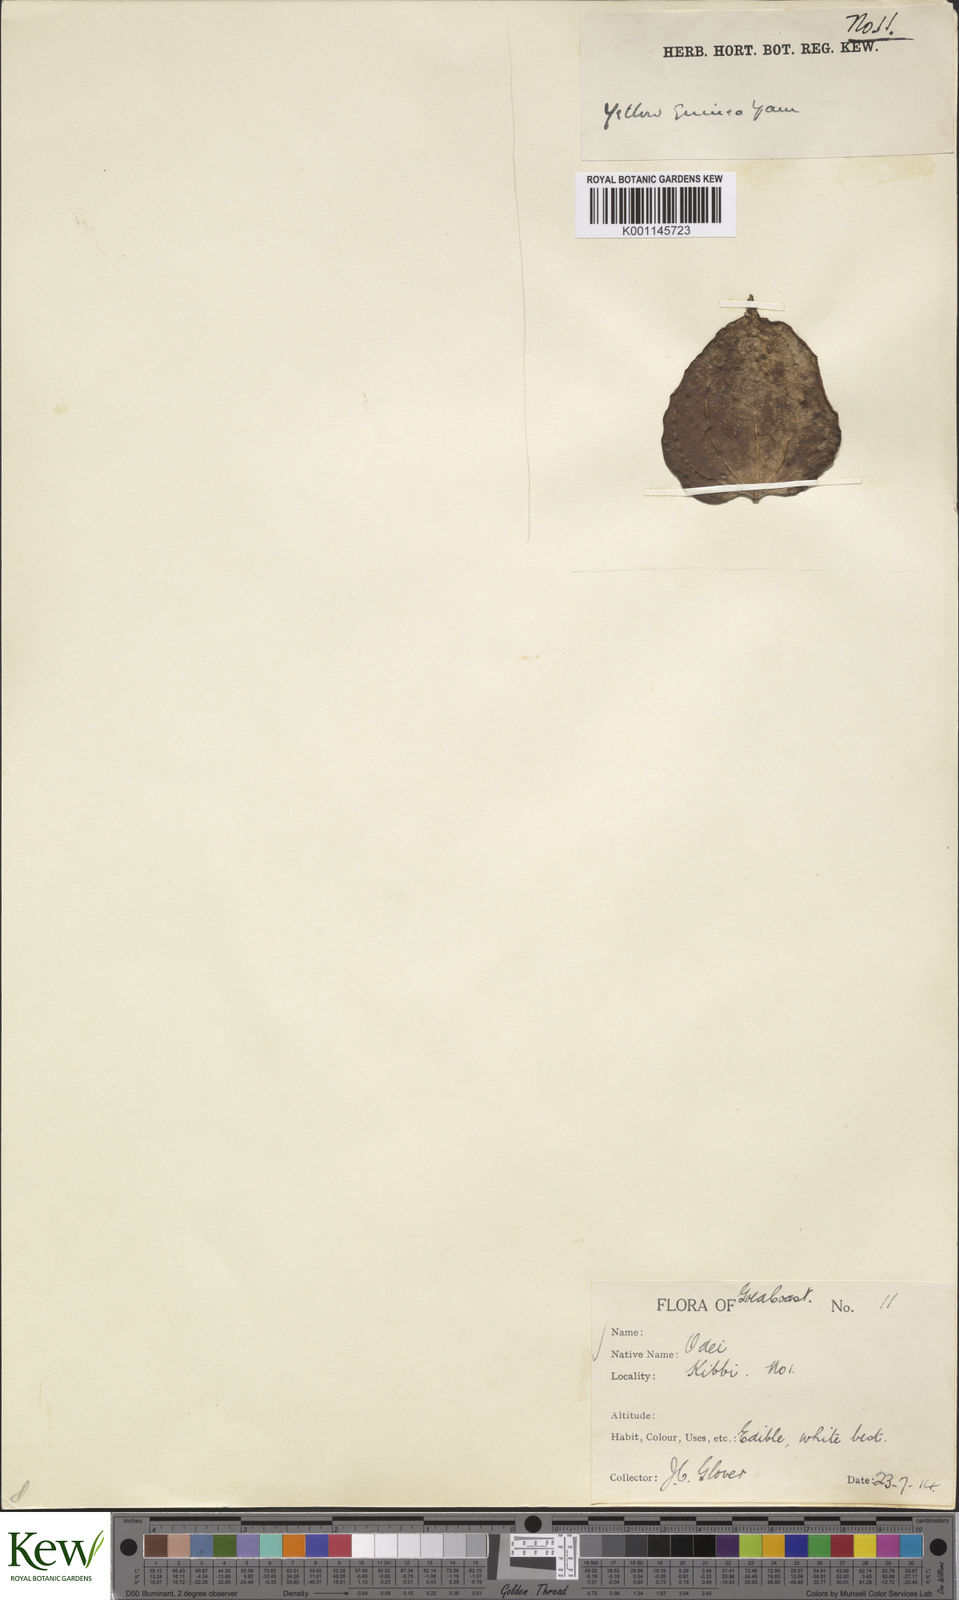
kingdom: Plantae
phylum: Tracheophyta
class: Liliopsida
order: Dioscoreales
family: Dioscoreaceae
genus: Dioscorea
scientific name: Dioscorea cayenensis
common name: Attoto yam
